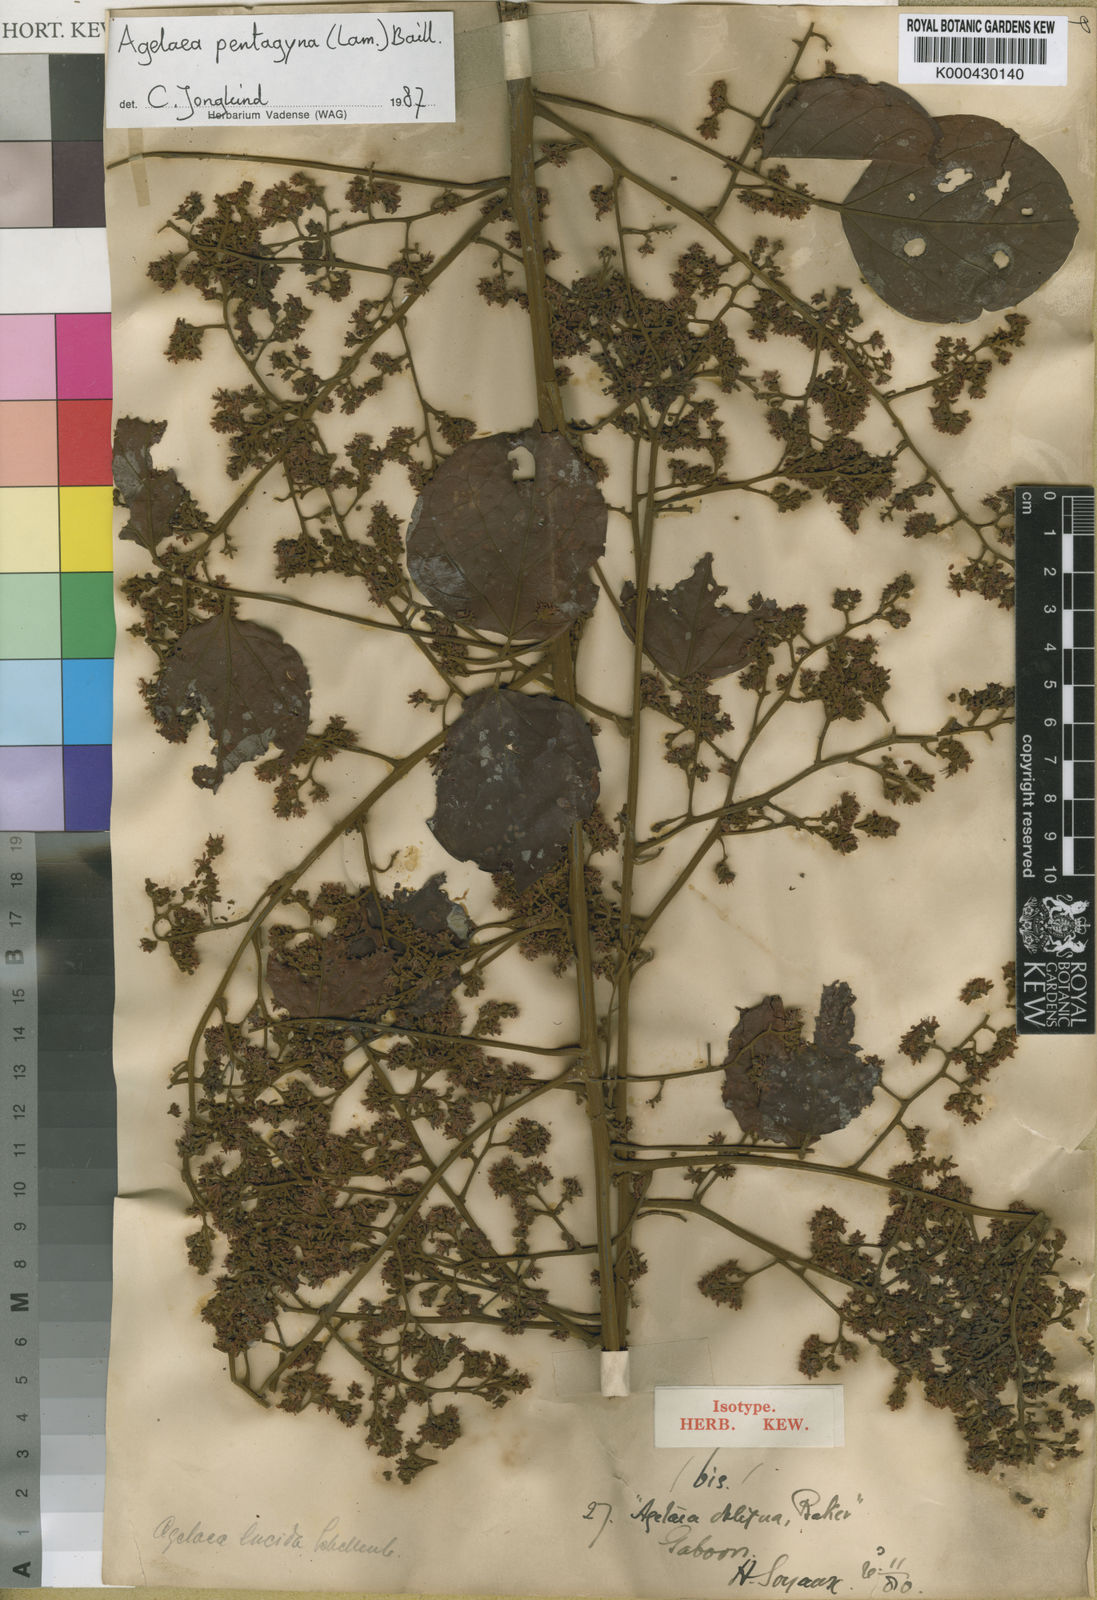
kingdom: Plantae
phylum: Tracheophyta
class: Magnoliopsida
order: Oxalidales
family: Connaraceae
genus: Agelaea
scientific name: Agelaea pentagyna
